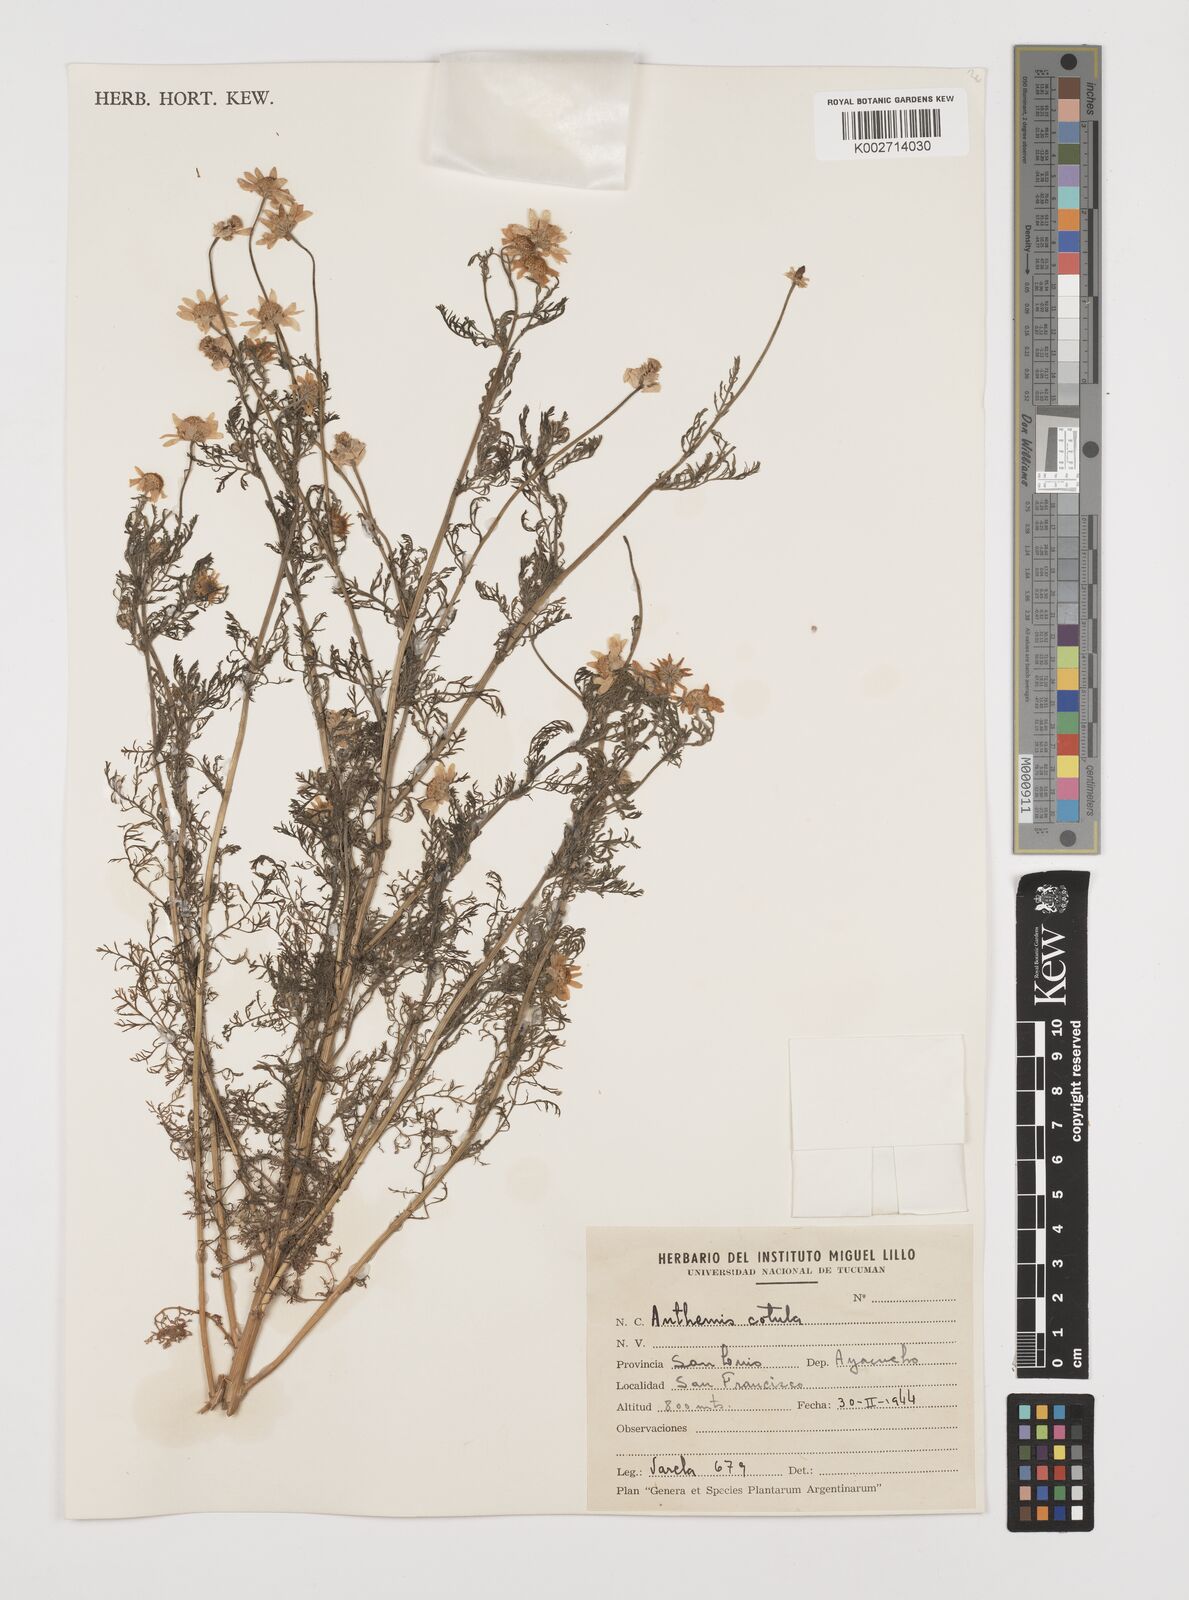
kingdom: Plantae
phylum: Tracheophyta
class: Magnoliopsida
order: Asterales
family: Asteraceae
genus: Anthemis
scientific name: Anthemis cotula
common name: Stinking chamomile
